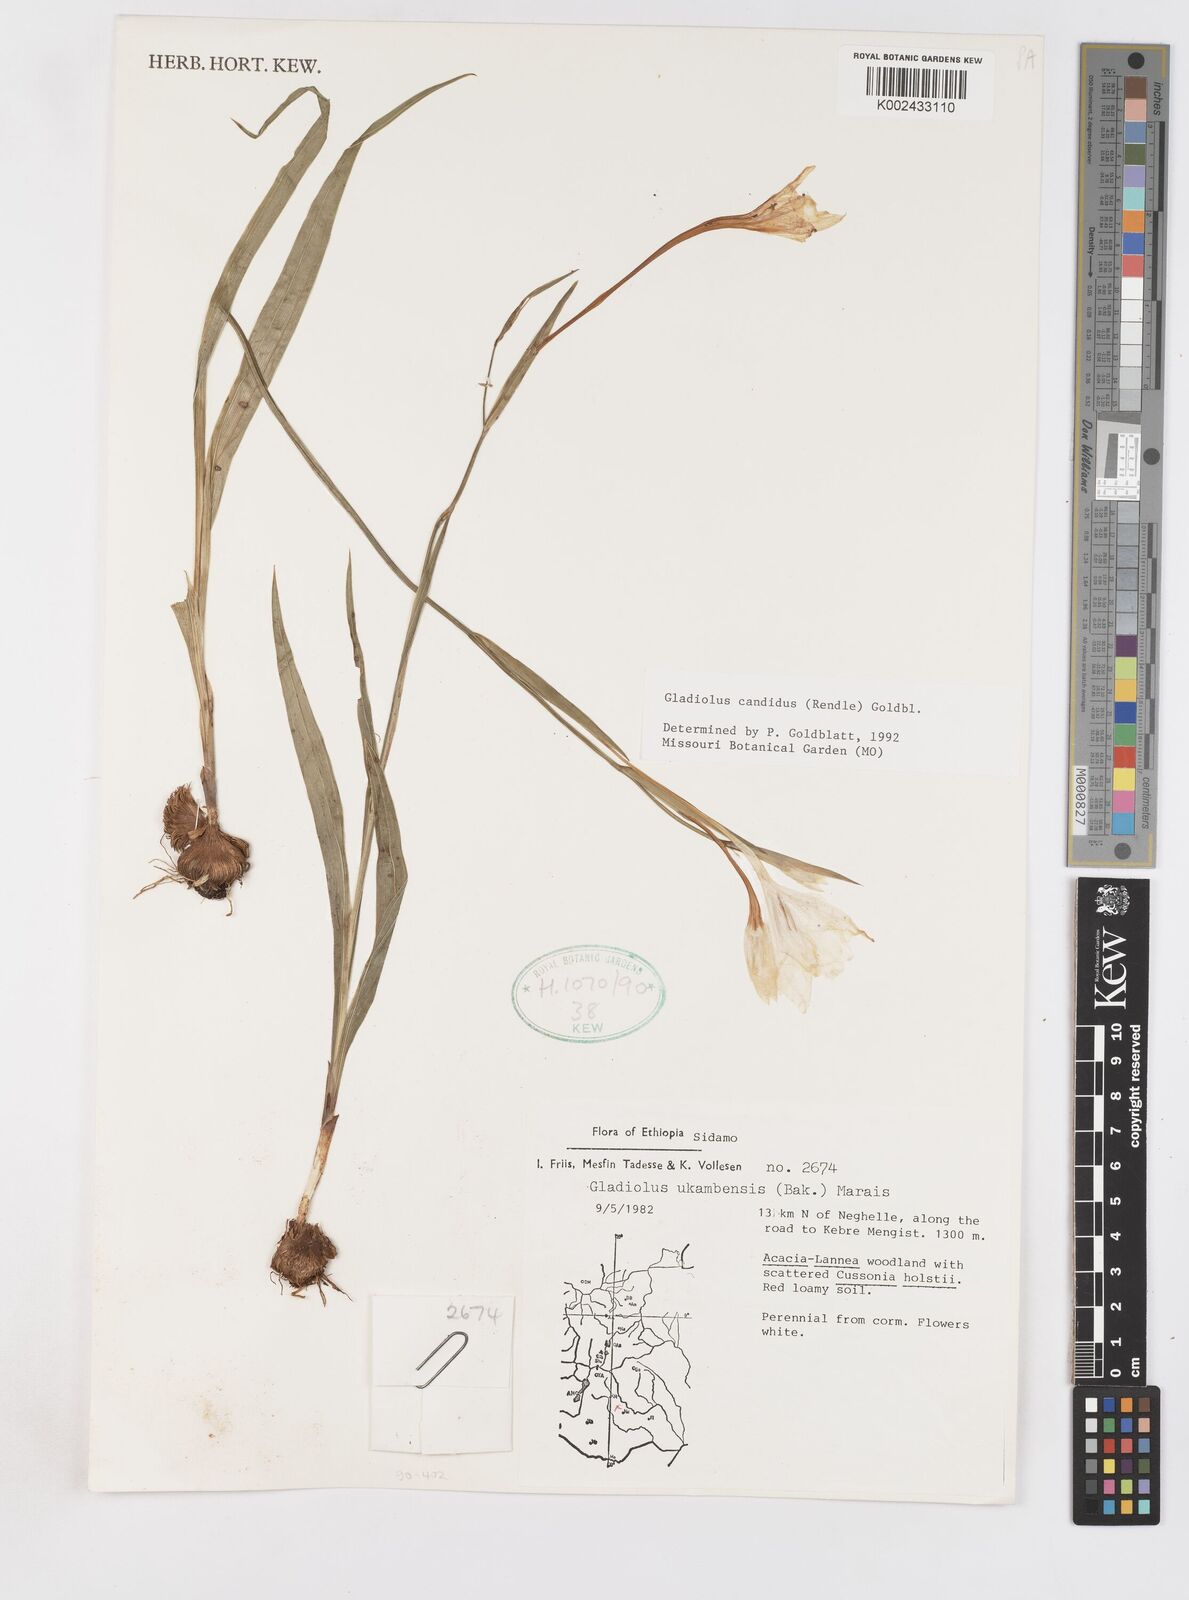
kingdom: Plantae
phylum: Tracheophyta
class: Liliopsida
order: Asparagales
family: Iridaceae
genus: Gladiolus
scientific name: Gladiolus candidus
